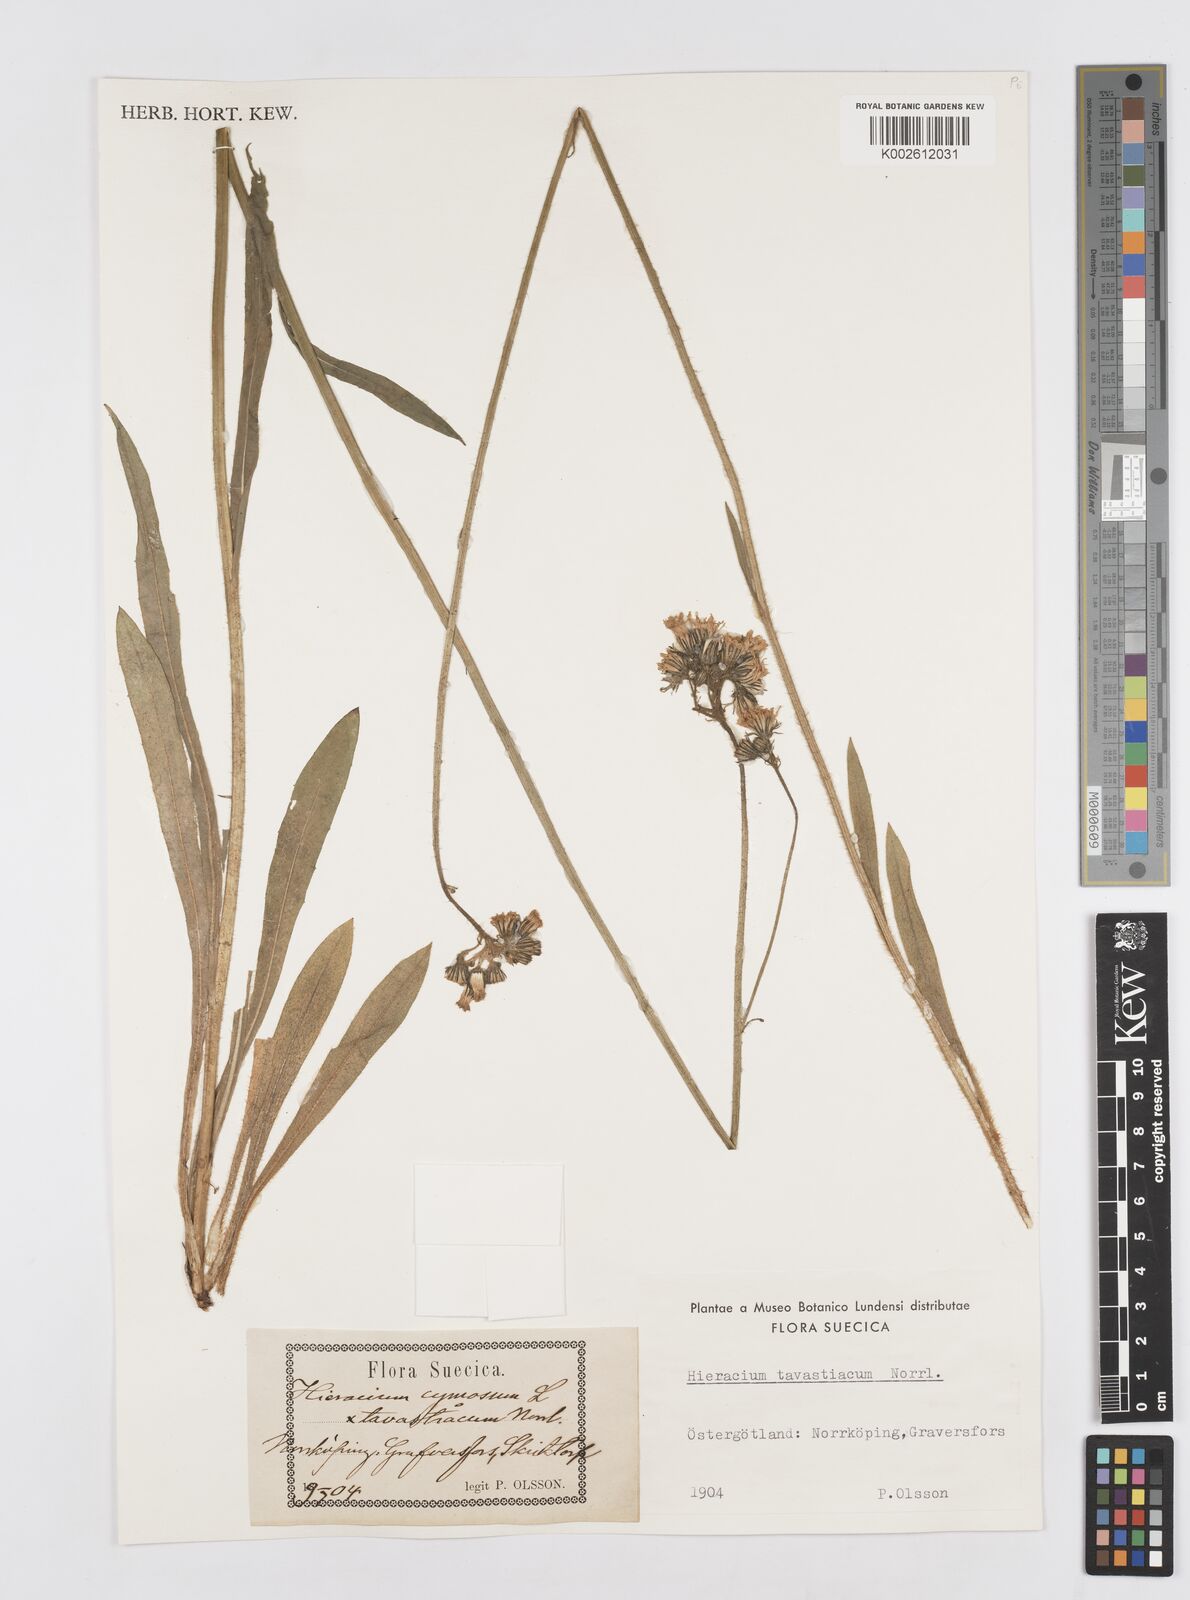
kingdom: Plantae
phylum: Tracheophyta
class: Magnoliopsida
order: Asterales
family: Asteraceae
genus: Hieracium
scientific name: Hieracium
